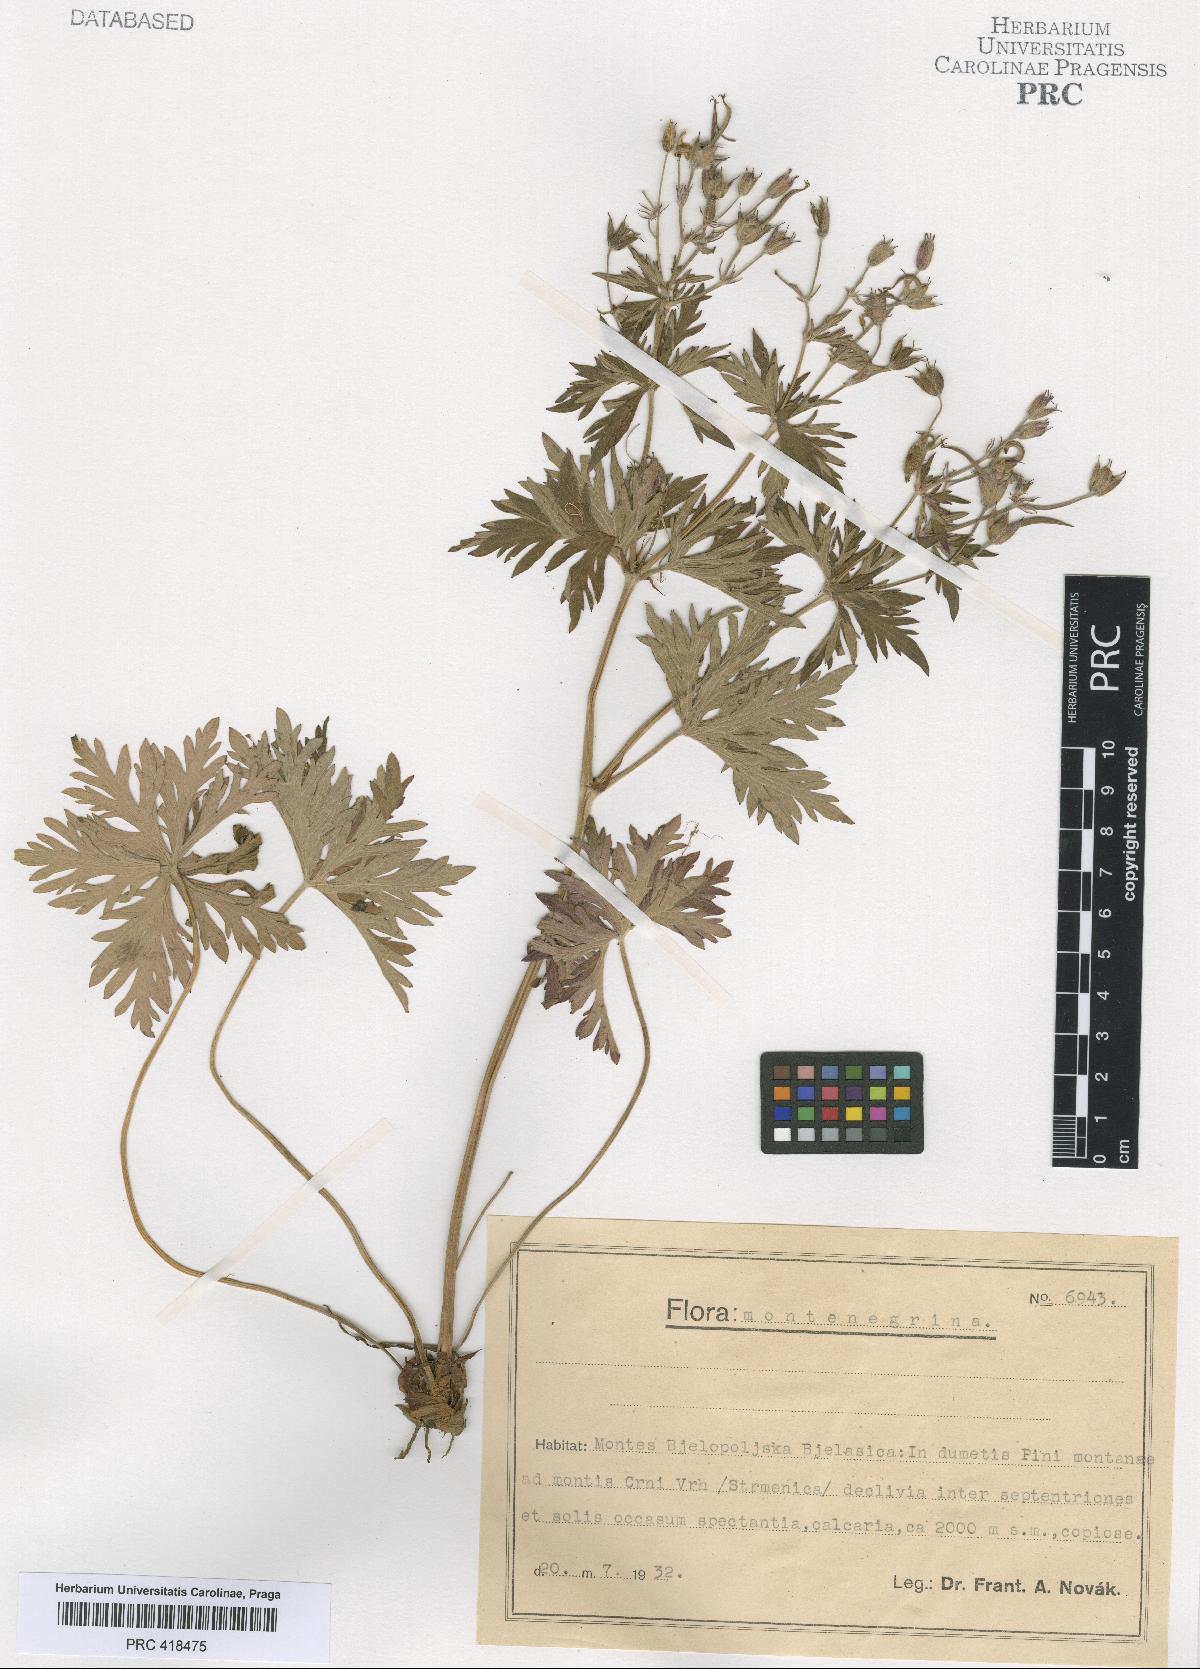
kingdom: Plantae
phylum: Tracheophyta
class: Magnoliopsida
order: Geraniales
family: Geraniaceae
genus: Geranium
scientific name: Geranium caeruleatum
